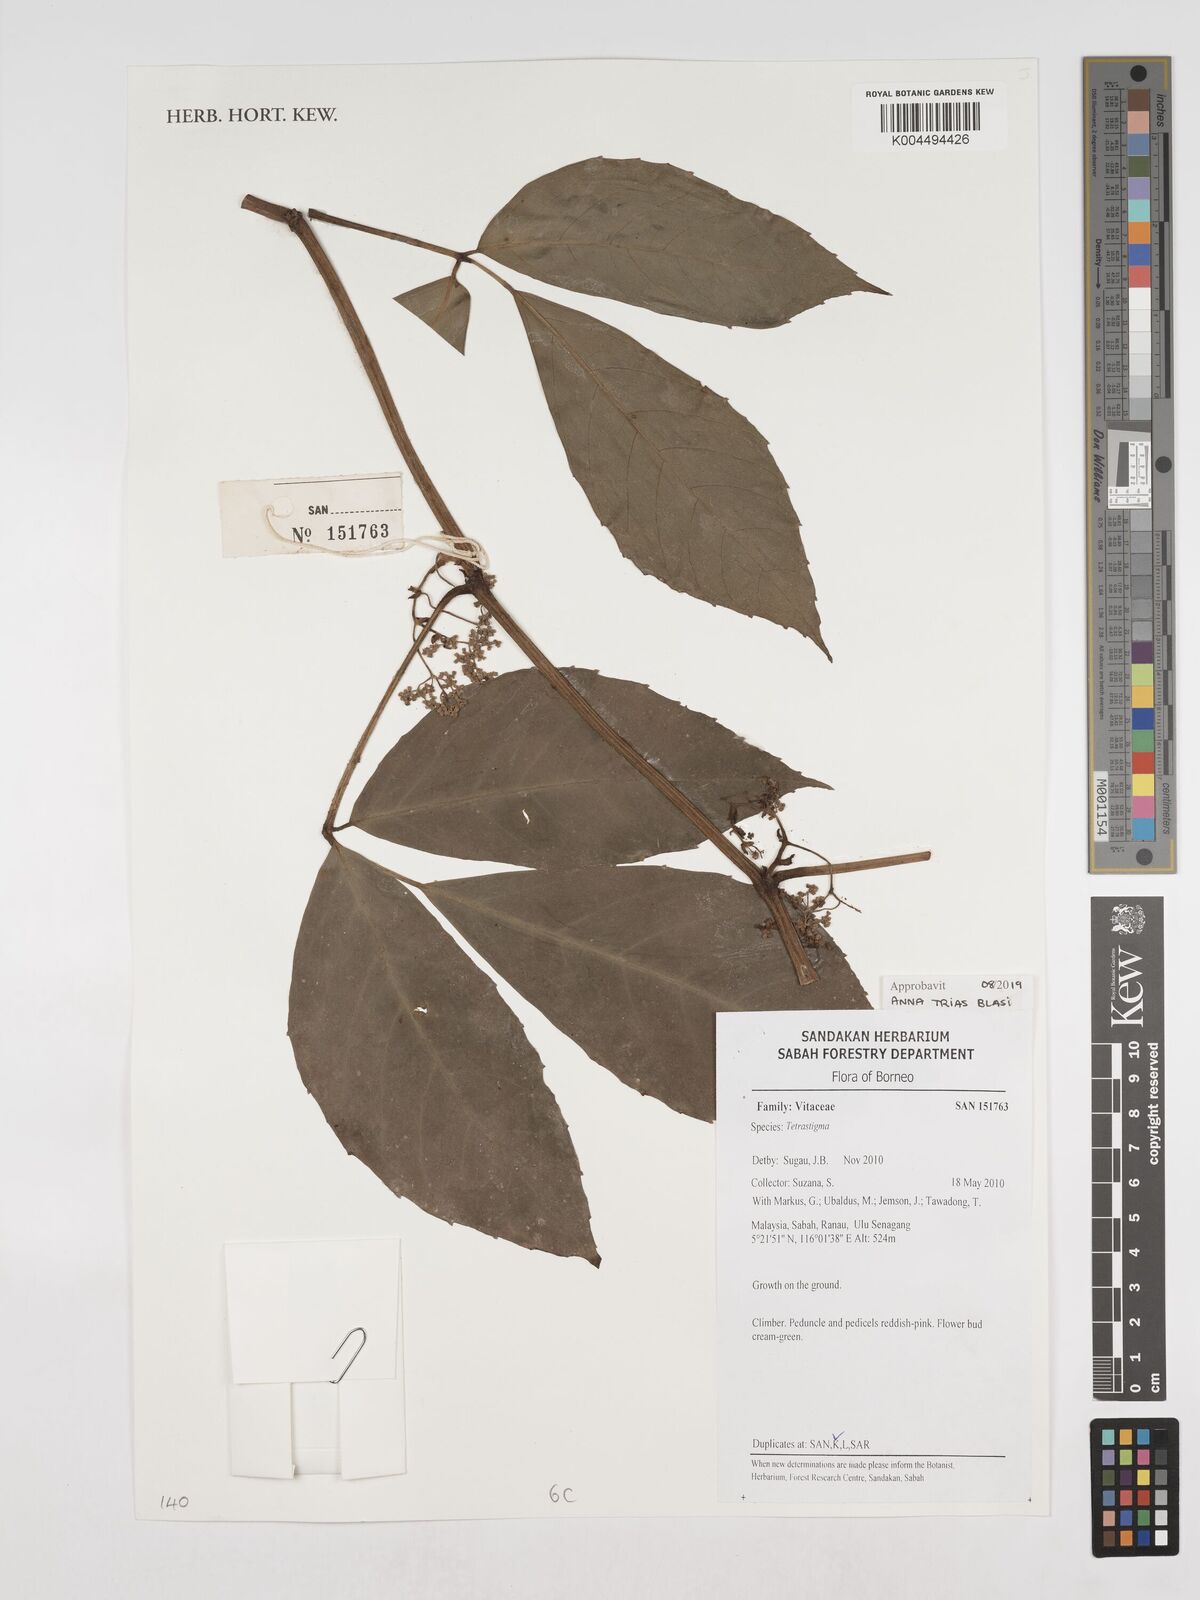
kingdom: Plantae
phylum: Tracheophyta
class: Magnoliopsida
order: Vitales
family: Vitaceae
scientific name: Vitaceae
